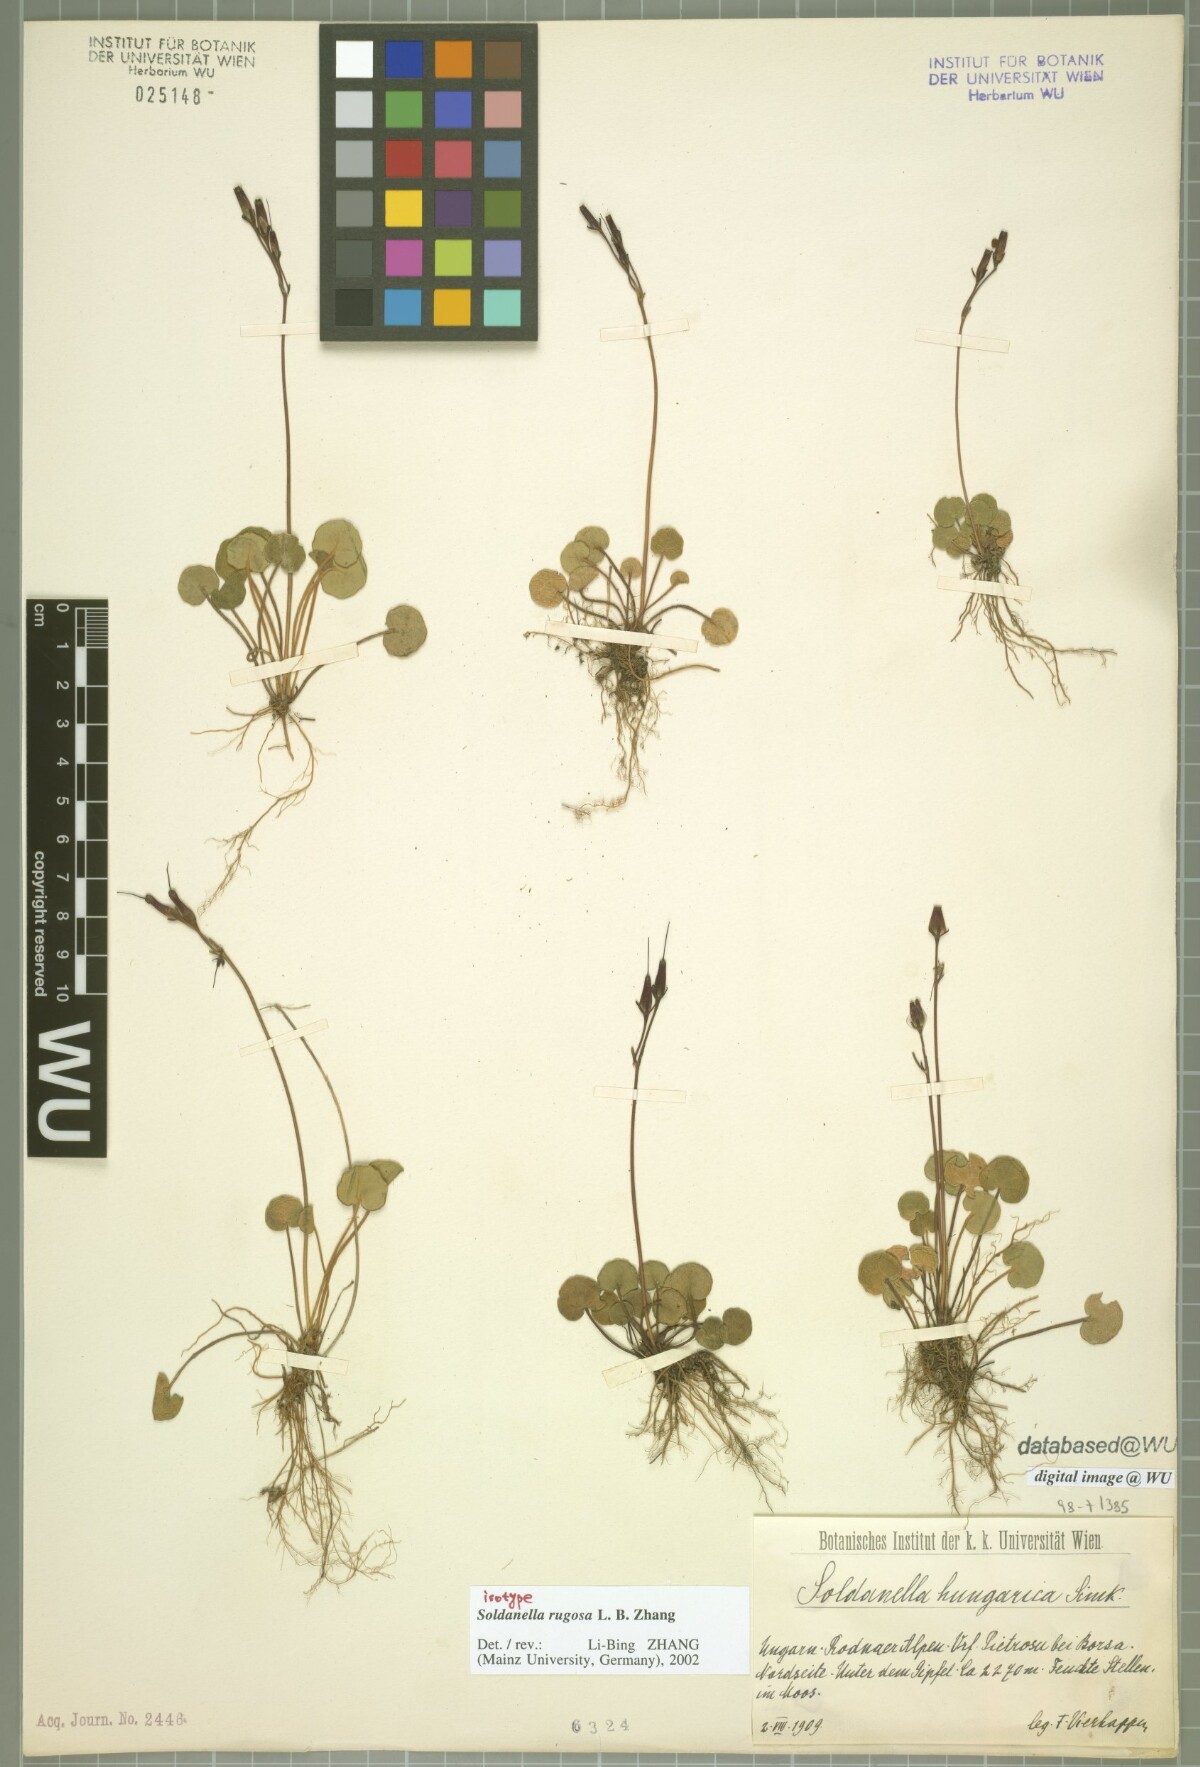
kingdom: Plantae
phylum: Tracheophyta
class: Magnoliopsida
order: Ericales
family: Primulaceae
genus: Soldanella
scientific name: Soldanella rugosa
